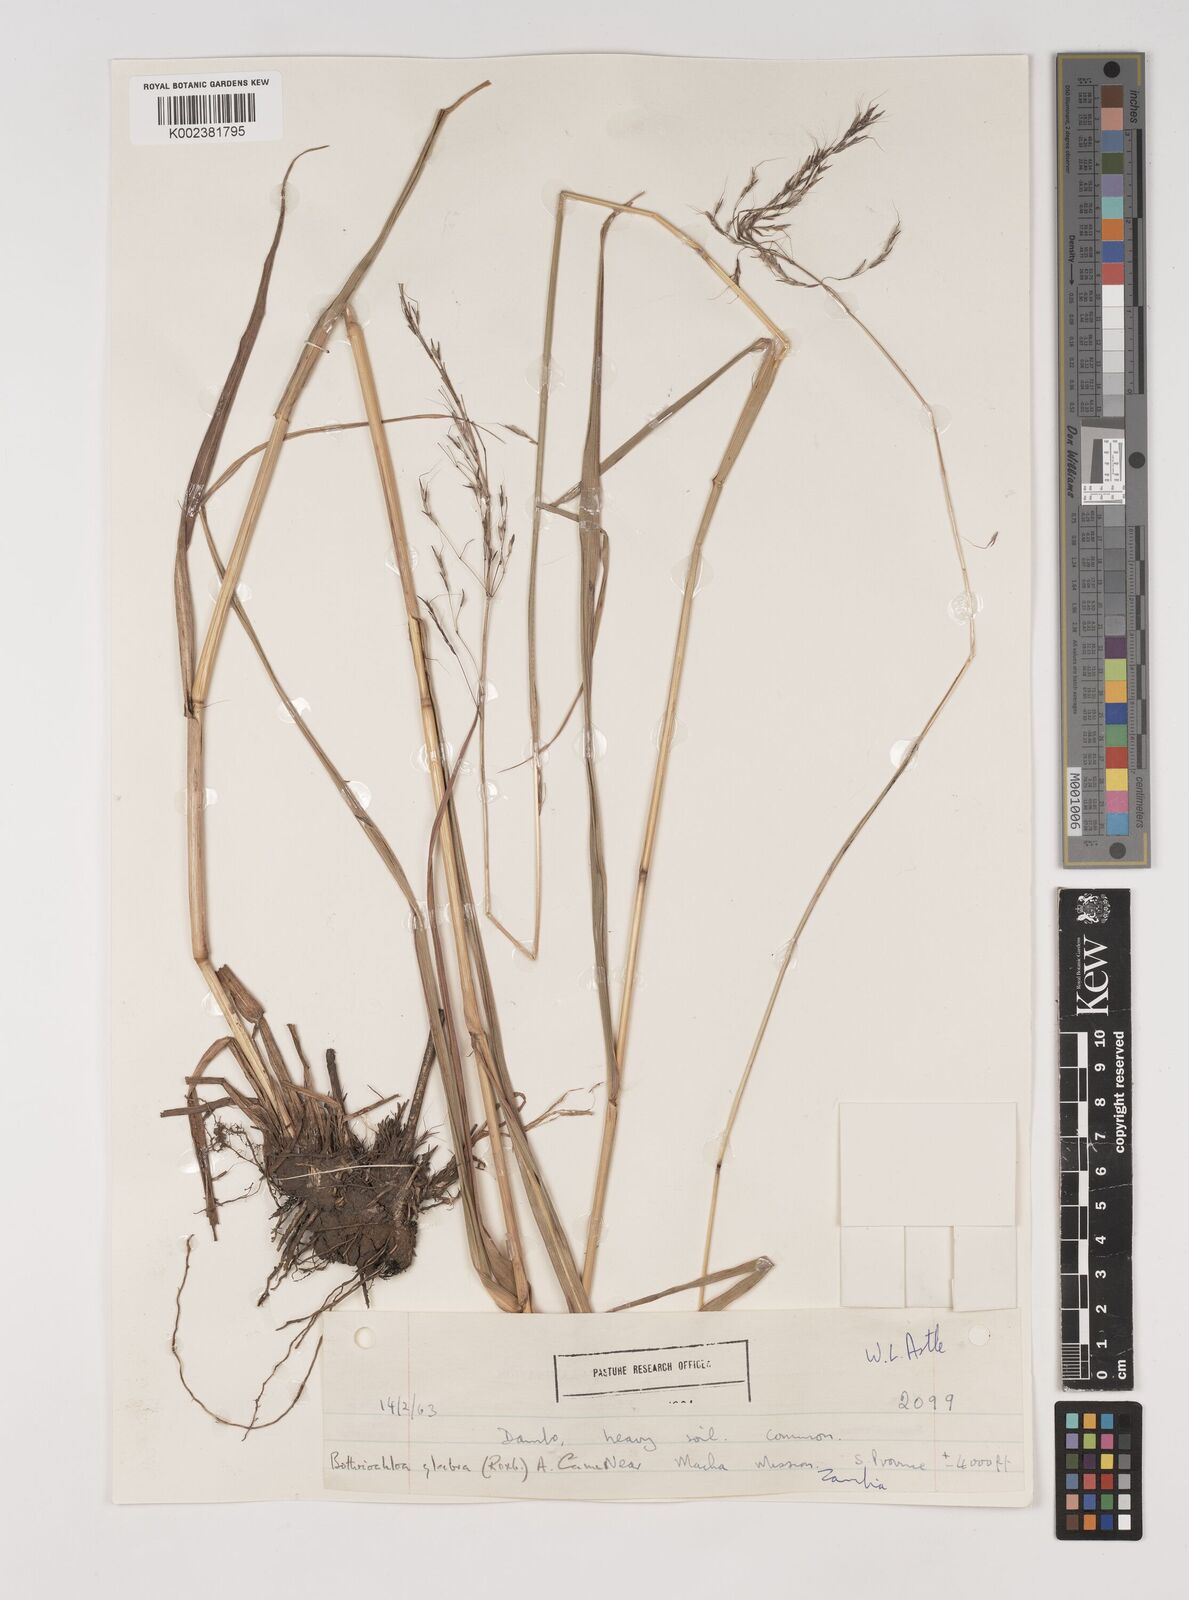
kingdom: Plantae
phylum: Tracheophyta
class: Liliopsida
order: Poales
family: Poaceae
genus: Bothriochloa
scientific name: Bothriochloa bladhii
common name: Caucasian bluestem
